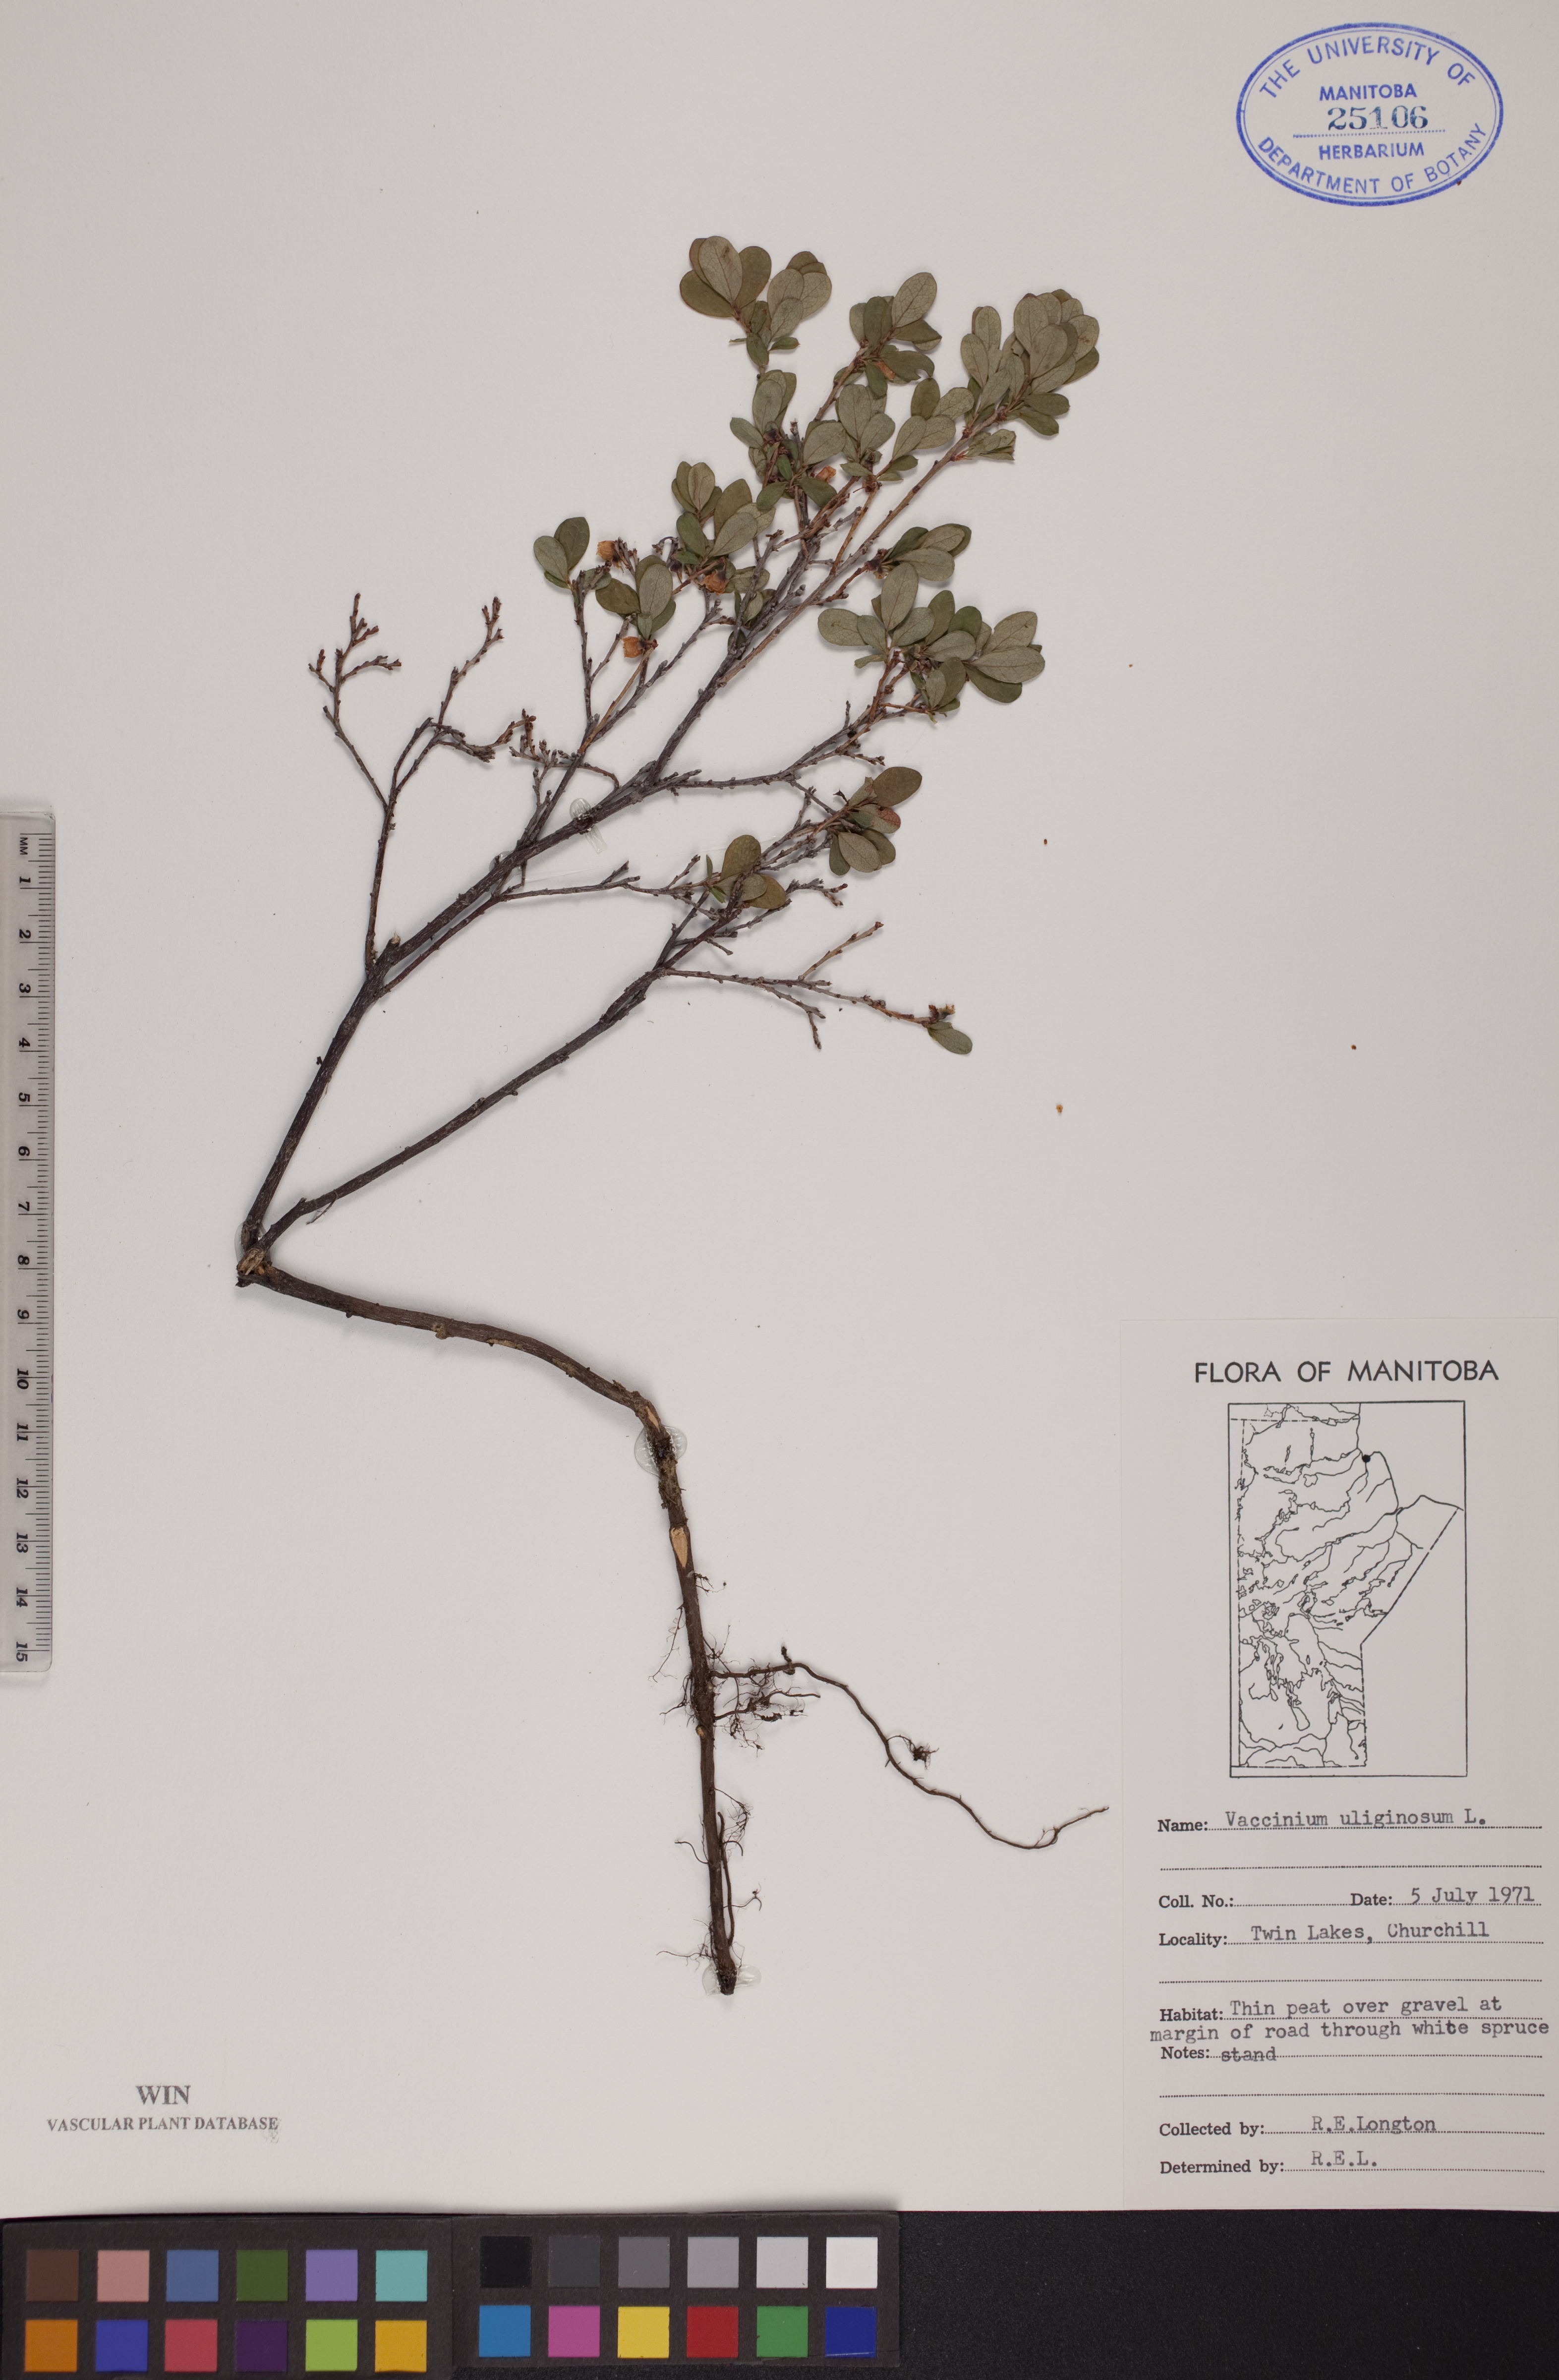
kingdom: Plantae
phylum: Tracheophyta
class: Magnoliopsida
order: Ericales
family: Ericaceae
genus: Vaccinium
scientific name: Vaccinium uliginosum
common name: Bog bilberry
